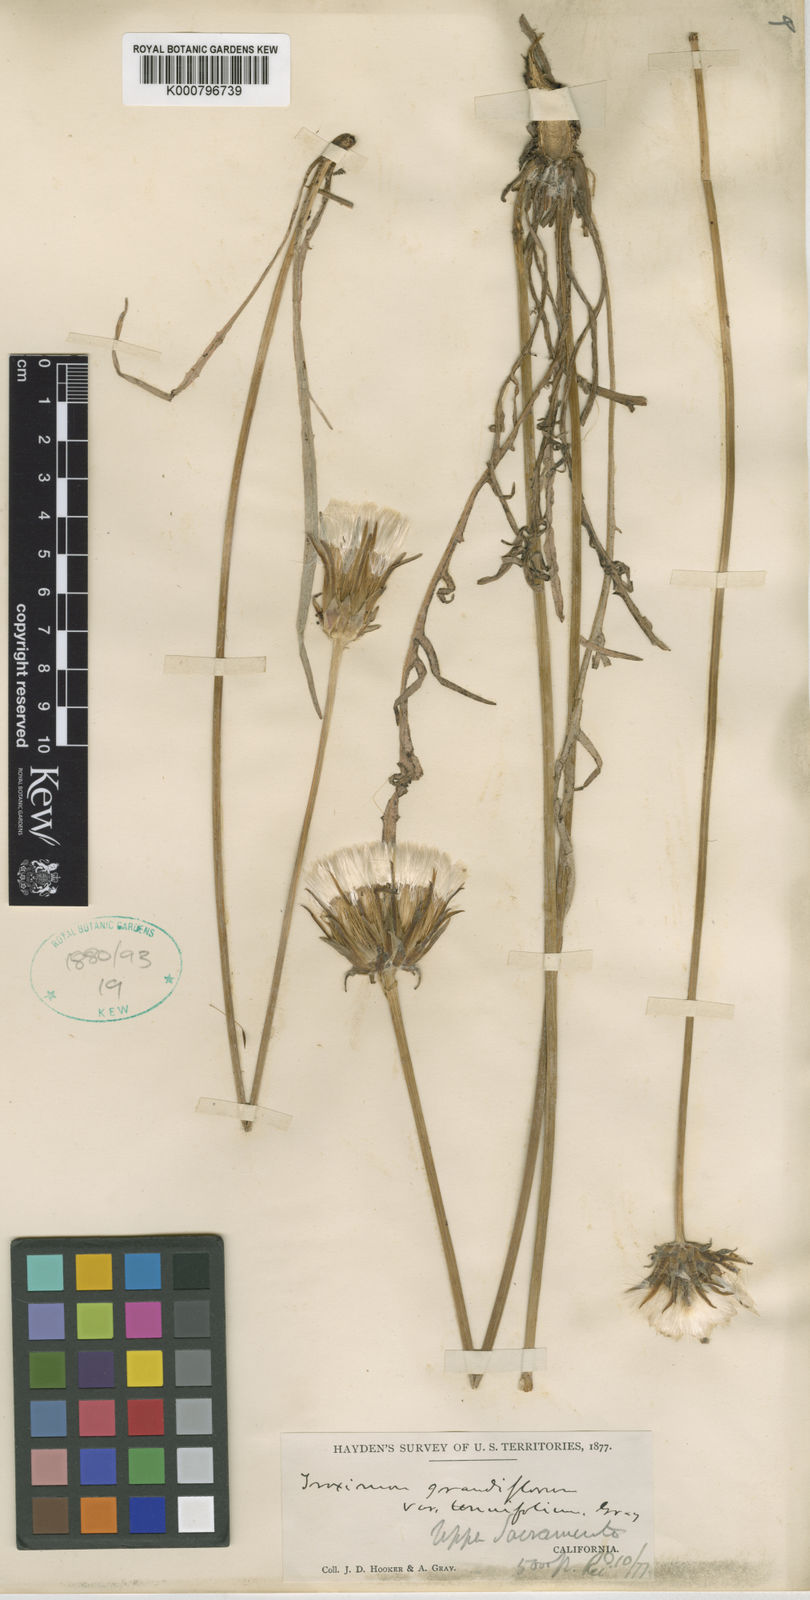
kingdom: Plantae
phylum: Tracheophyta
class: Magnoliopsida
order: Asterales
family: Asteraceae
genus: Agoseris
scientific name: Agoseris retrorsa
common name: Spearleaf agoseris
